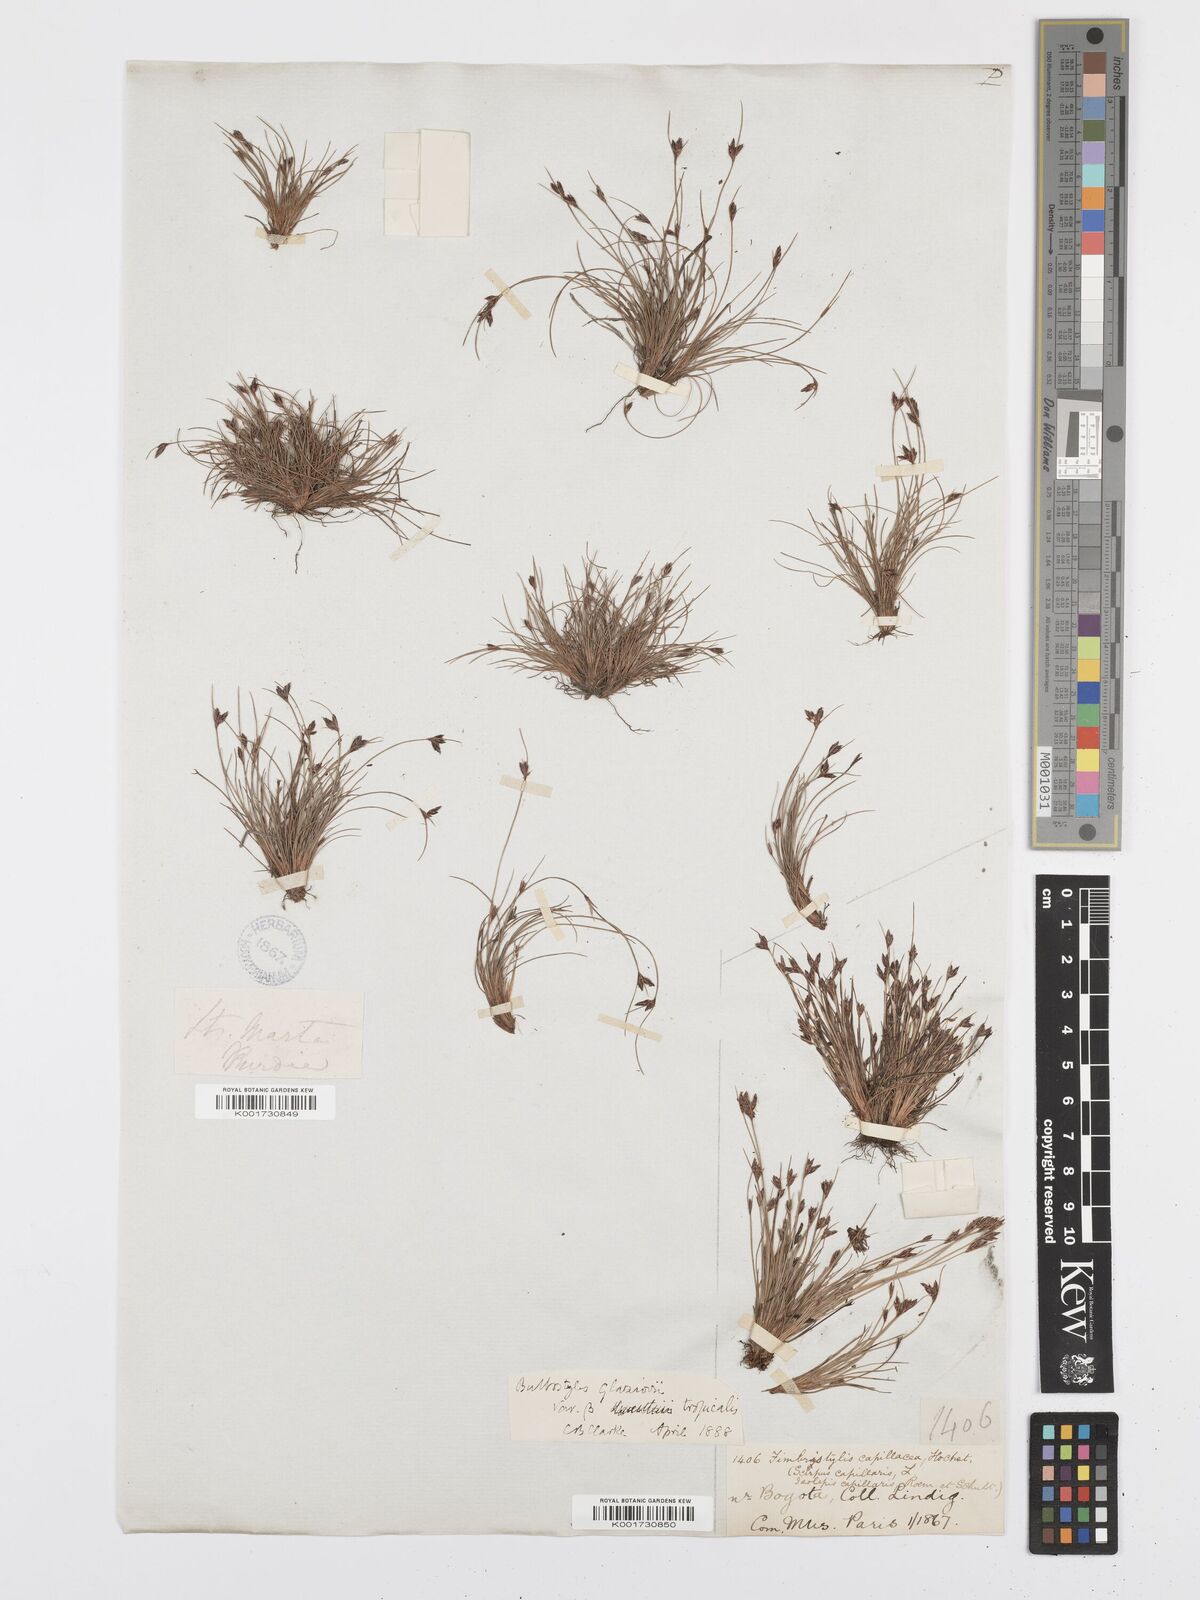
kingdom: Plantae
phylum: Tracheophyta
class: Liliopsida
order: Poales
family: Cyperaceae
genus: Bulbostylis
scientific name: Bulbostylis juncoides
